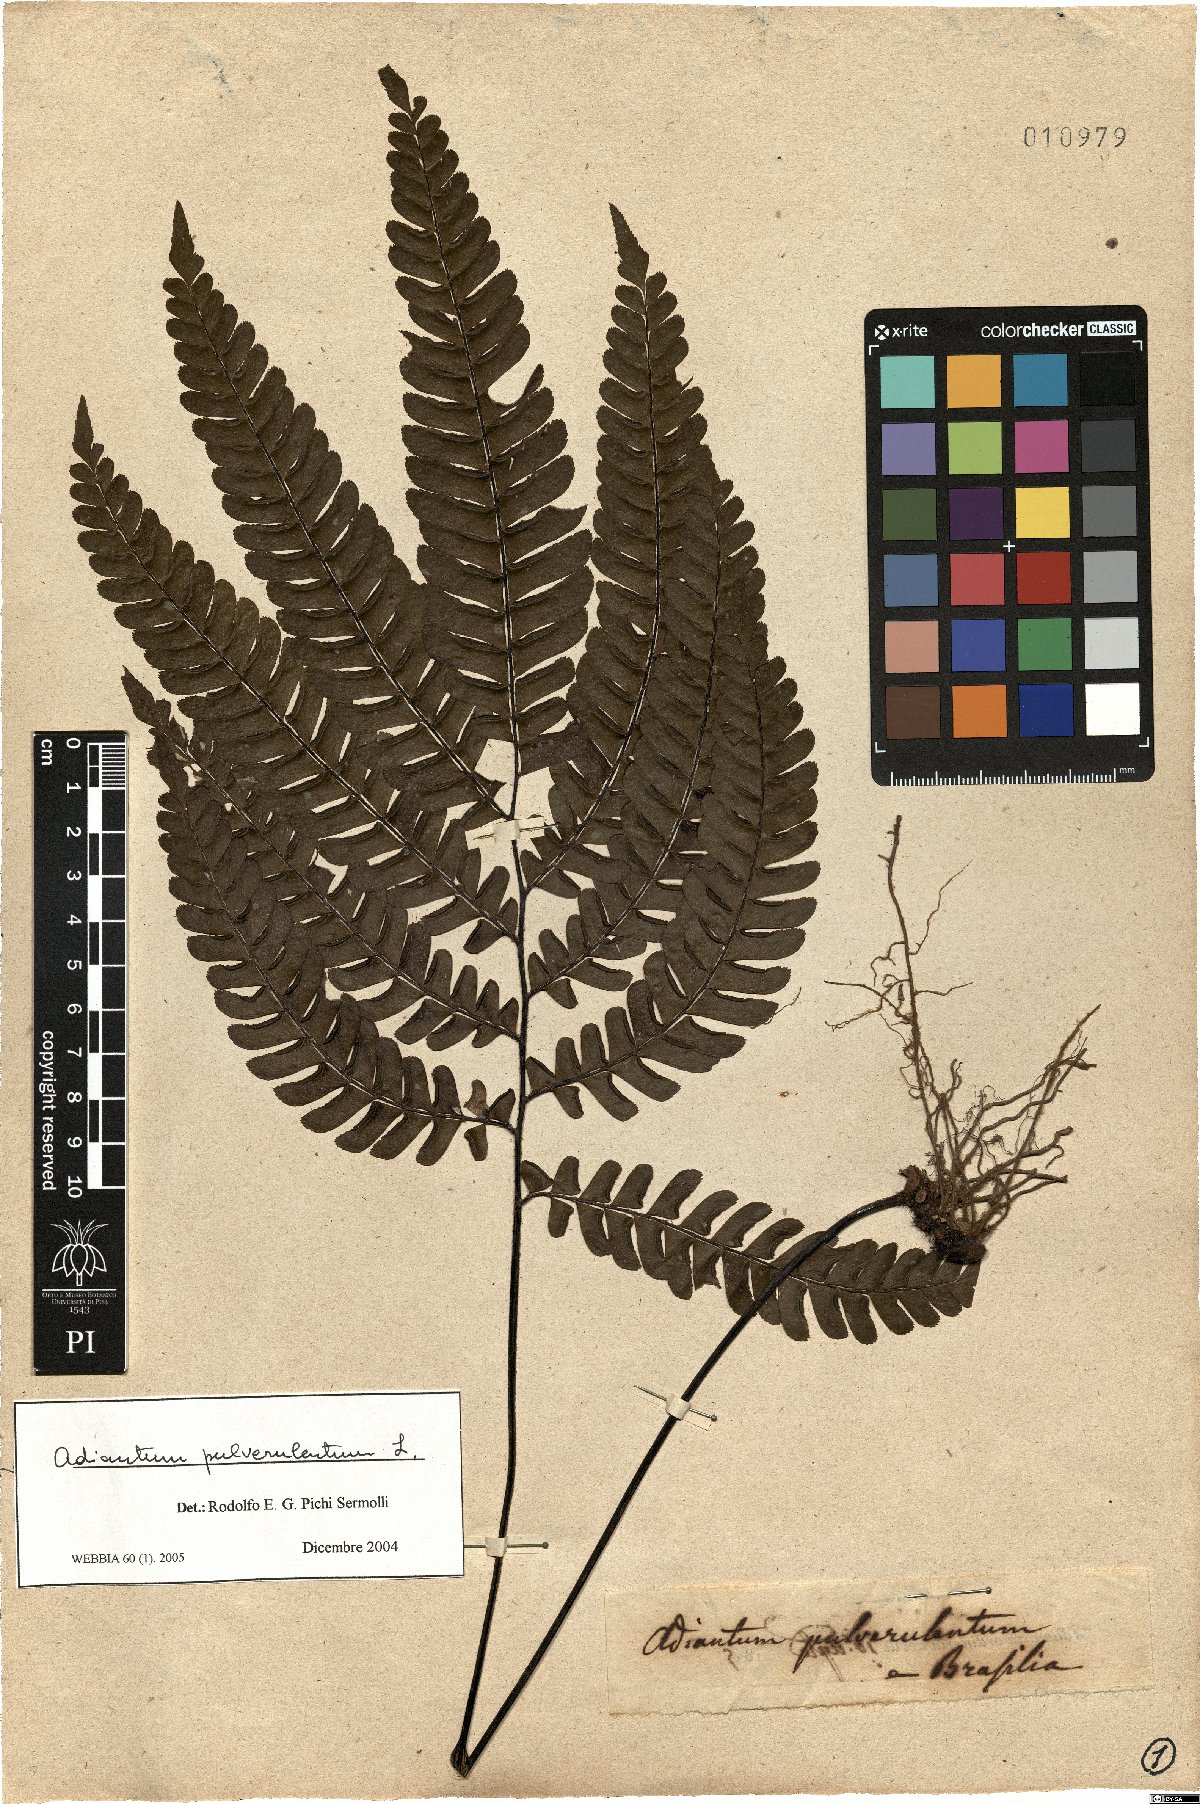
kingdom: Plantae
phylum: Tracheophyta
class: Polypodiopsida
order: Polypodiales
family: Pteridaceae
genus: Adiantum
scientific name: Adiantum pulverulentum
